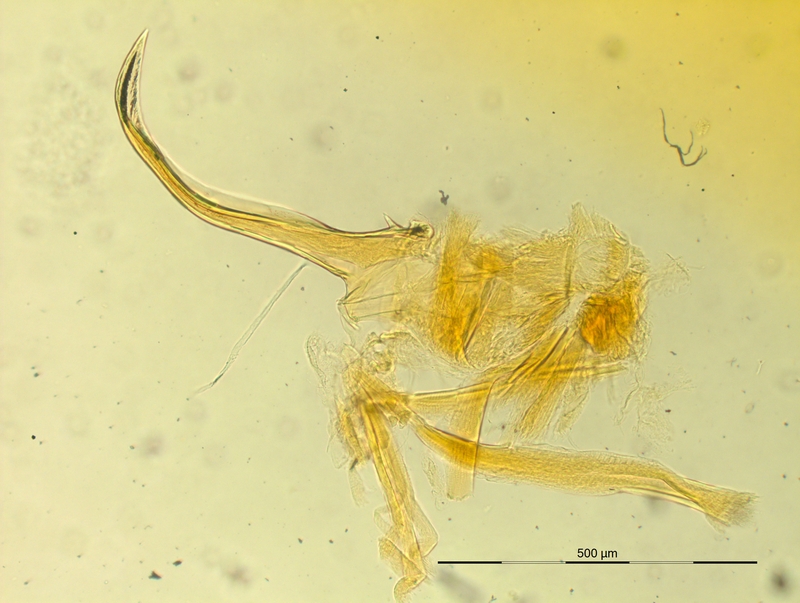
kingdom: Animalia
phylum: Arthropoda
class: Diplopoda
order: Chordeumatida
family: Craspedosomatidae
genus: Iulogona
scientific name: Iulogona tirolensis
